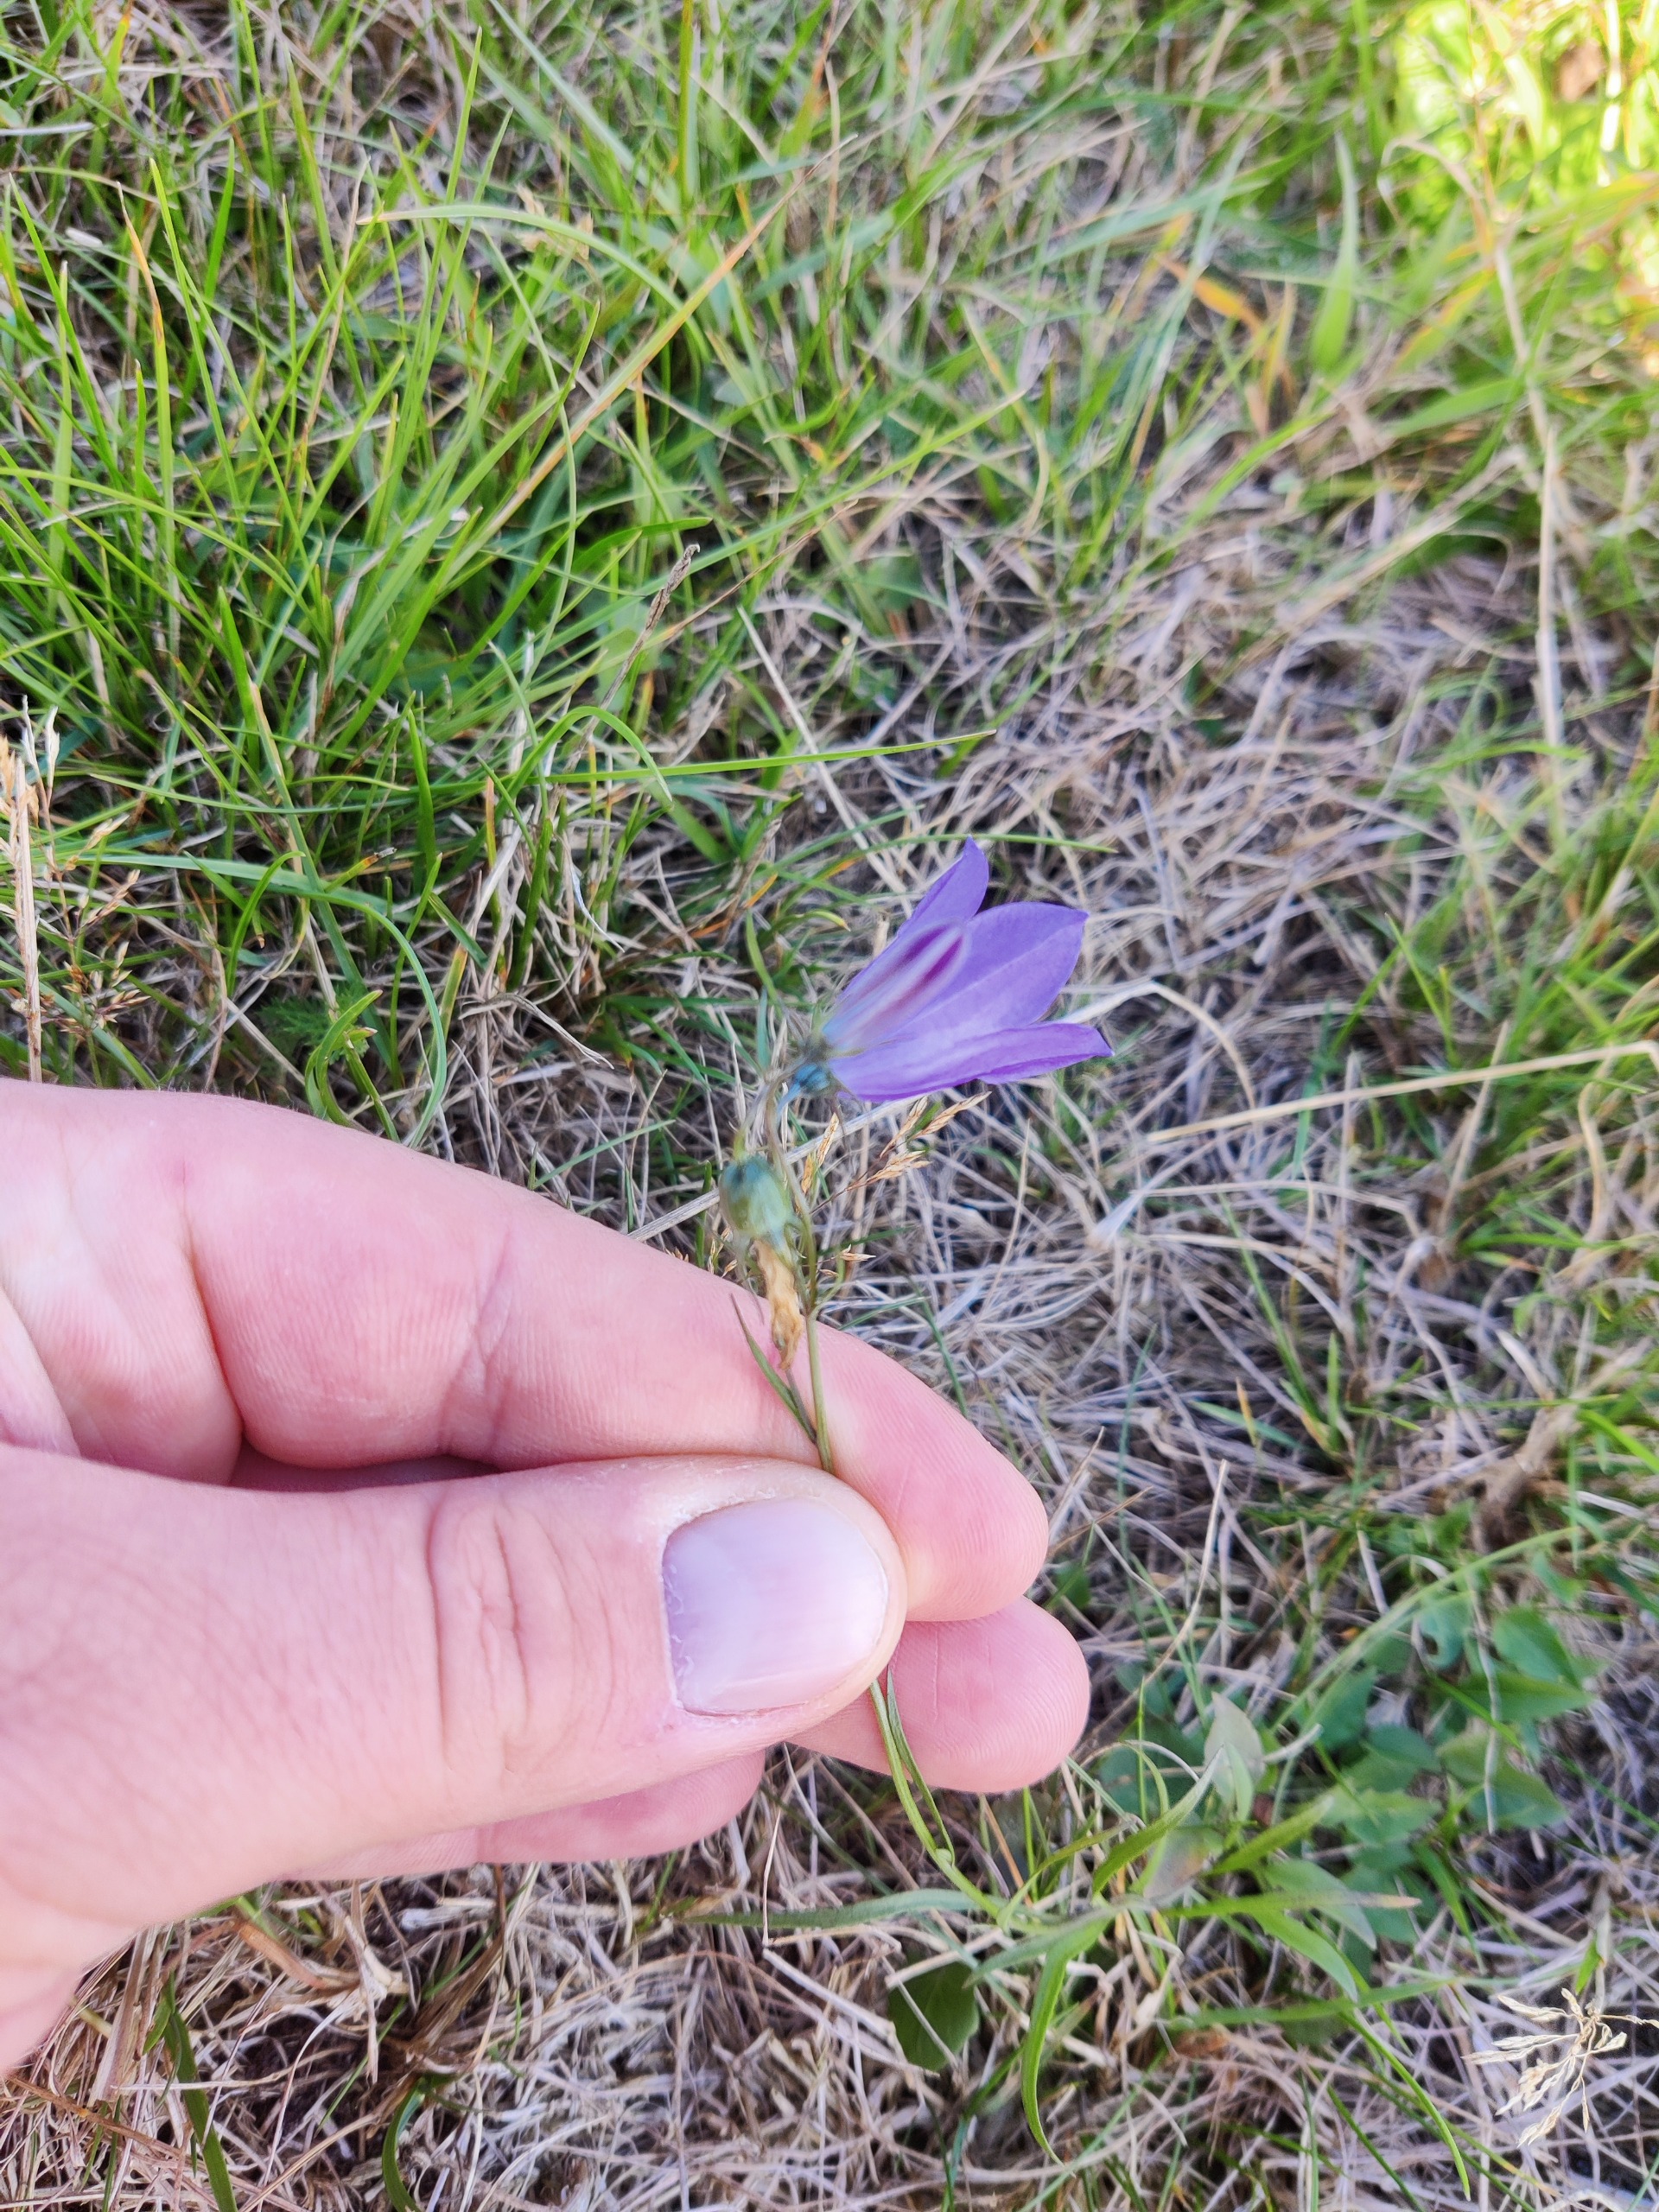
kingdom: Plantae
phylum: Tracheophyta
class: Magnoliopsida
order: Asterales
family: Campanulaceae
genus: Campanula
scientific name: Campanula rotundifolia
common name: Liden klokke
